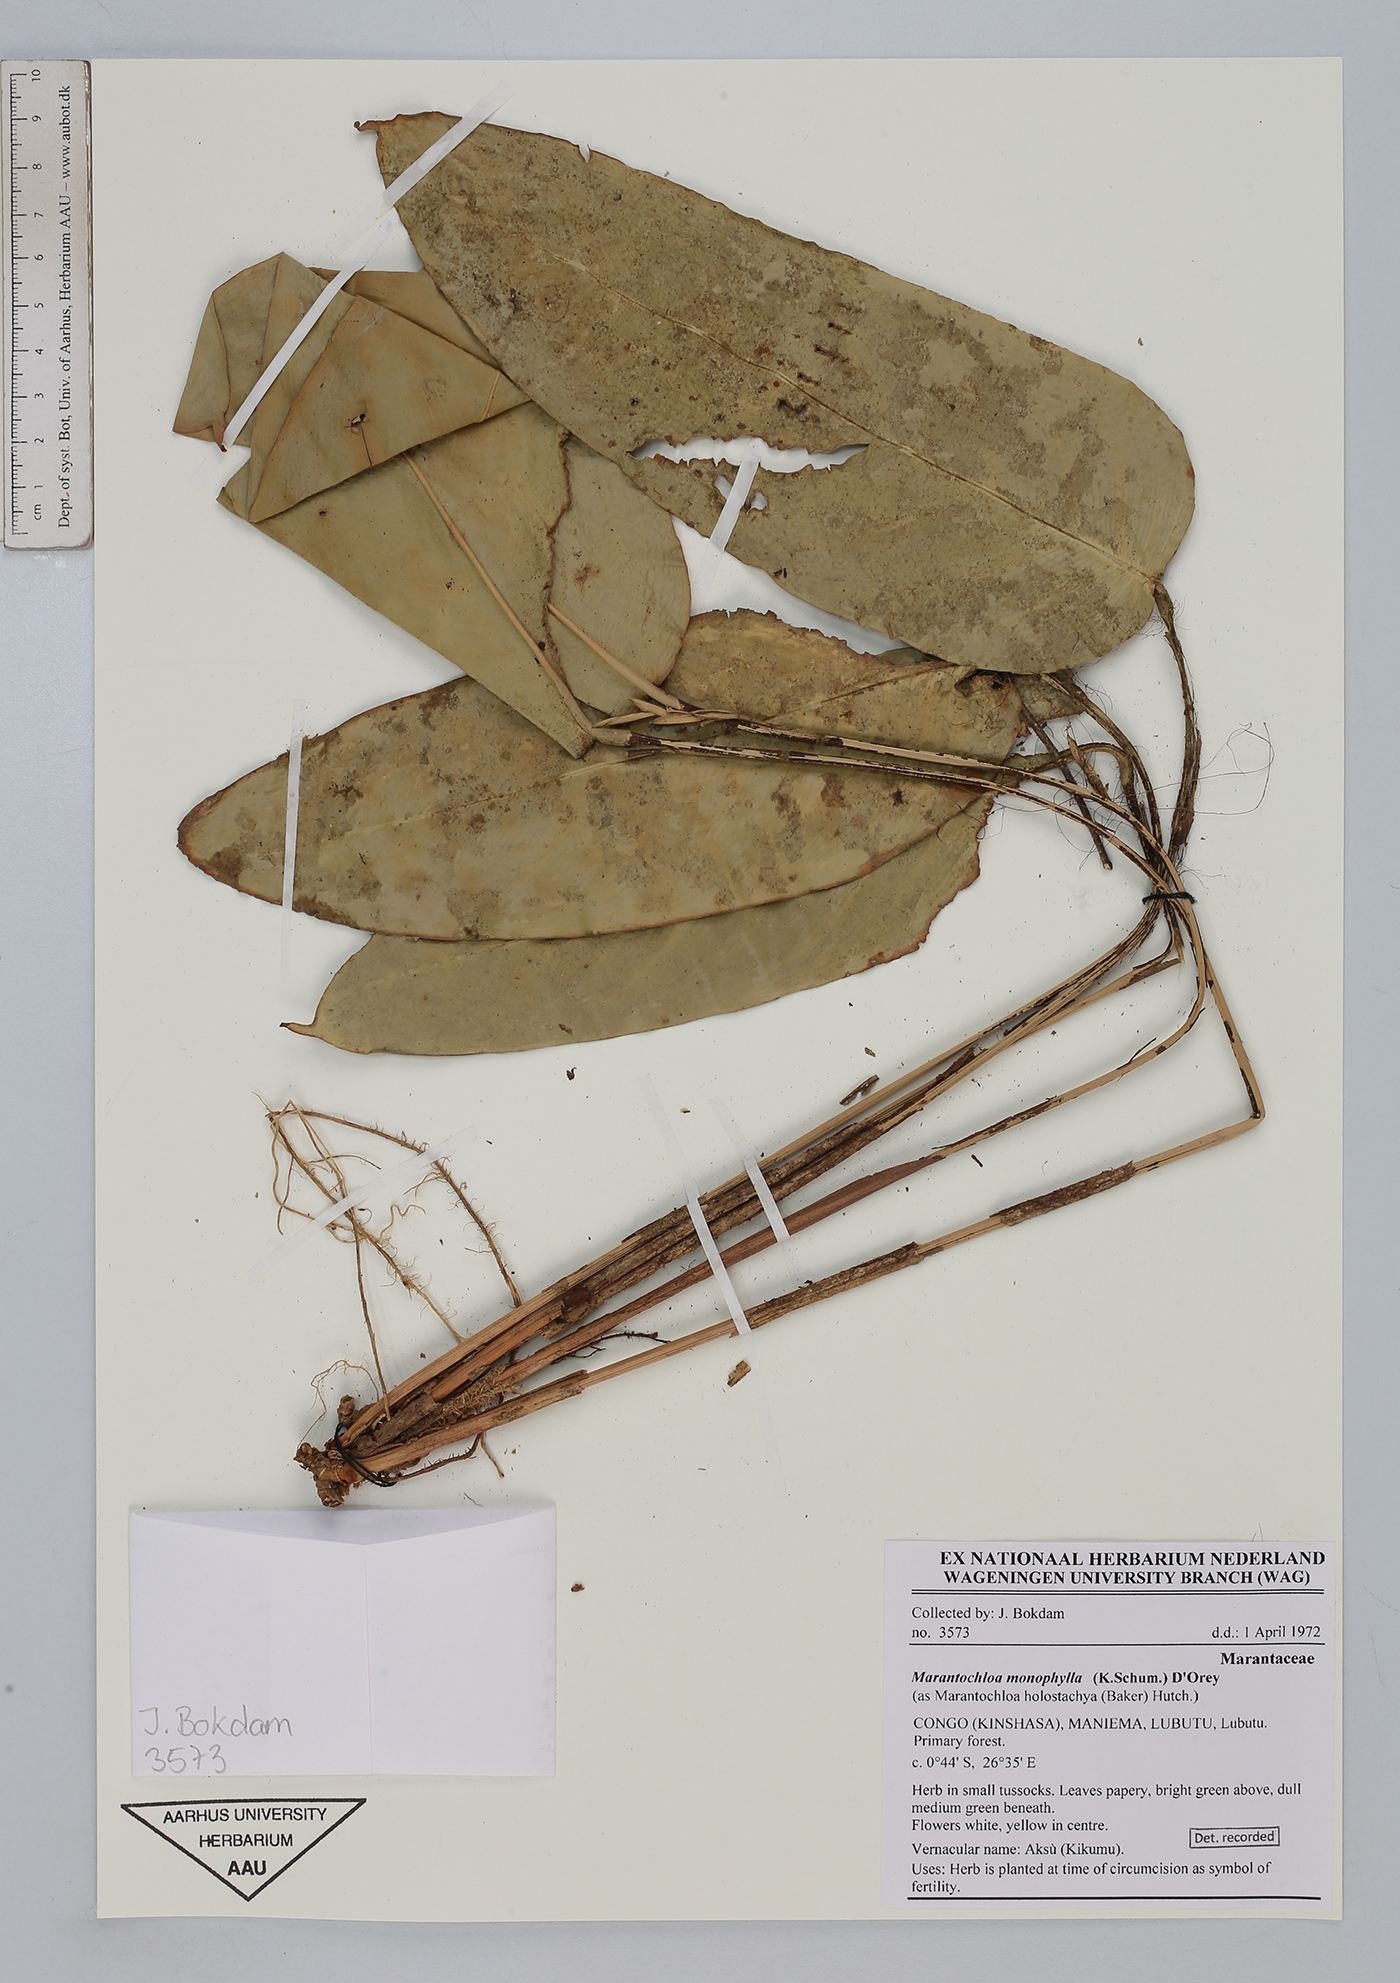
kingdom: Plantae
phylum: Tracheophyta
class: Liliopsida
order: Zingiberales
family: Marantaceae
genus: Marantochloa
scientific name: Marantochloa monophylla
